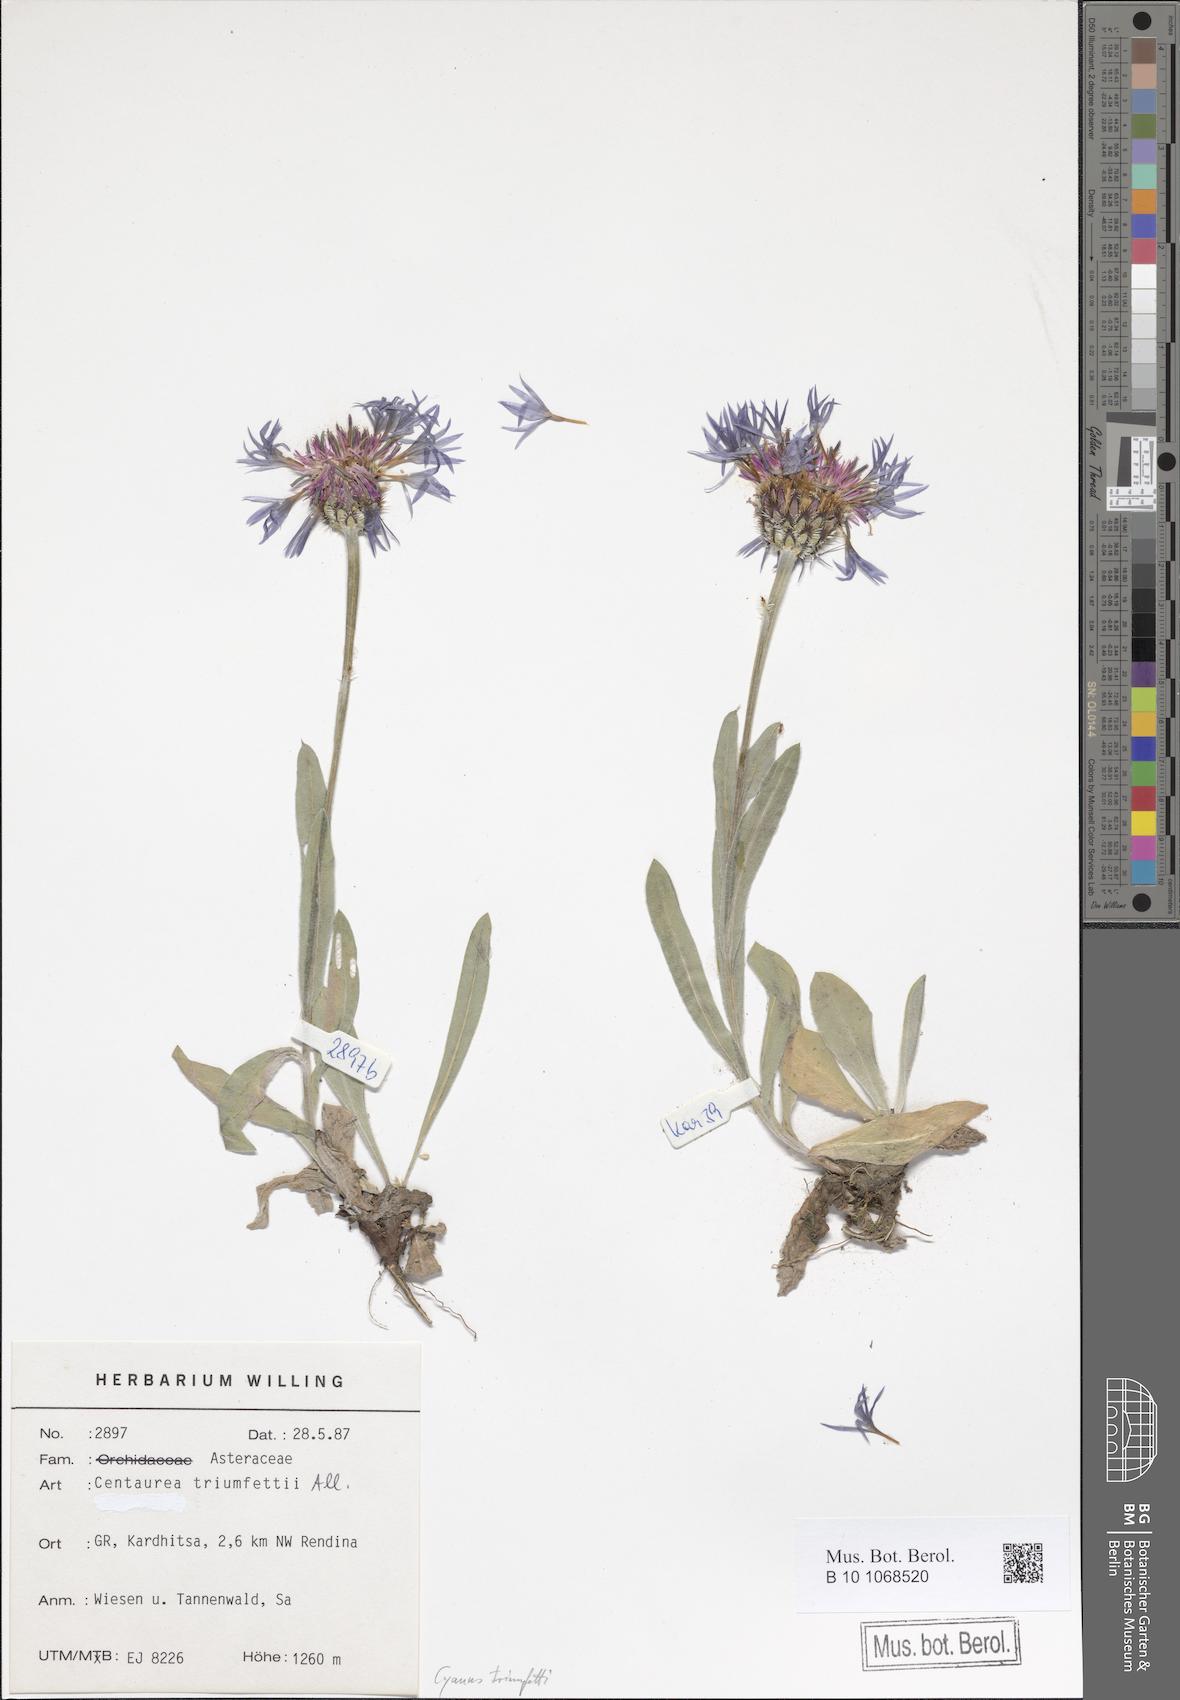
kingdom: Plantae
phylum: Tracheophyta
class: Magnoliopsida
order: Asterales
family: Asteraceae
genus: Centaurea
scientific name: Centaurea triumfettii
